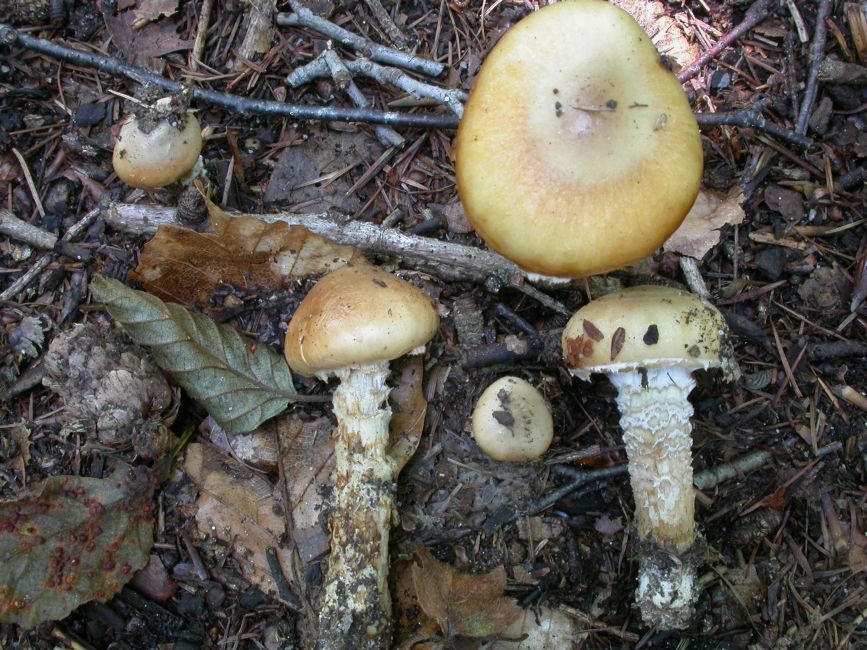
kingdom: Fungi
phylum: Basidiomycota
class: Agaricomycetes
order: Agaricales
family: Cortinariaceae
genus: Cortinarius
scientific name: Cortinarius trivialis
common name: brunslimet slørhat
